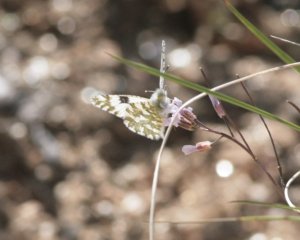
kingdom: Animalia
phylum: Arthropoda
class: Insecta
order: Lepidoptera
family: Pieridae
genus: Euchloe
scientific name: Euchloe lotta
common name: Desert Marble
